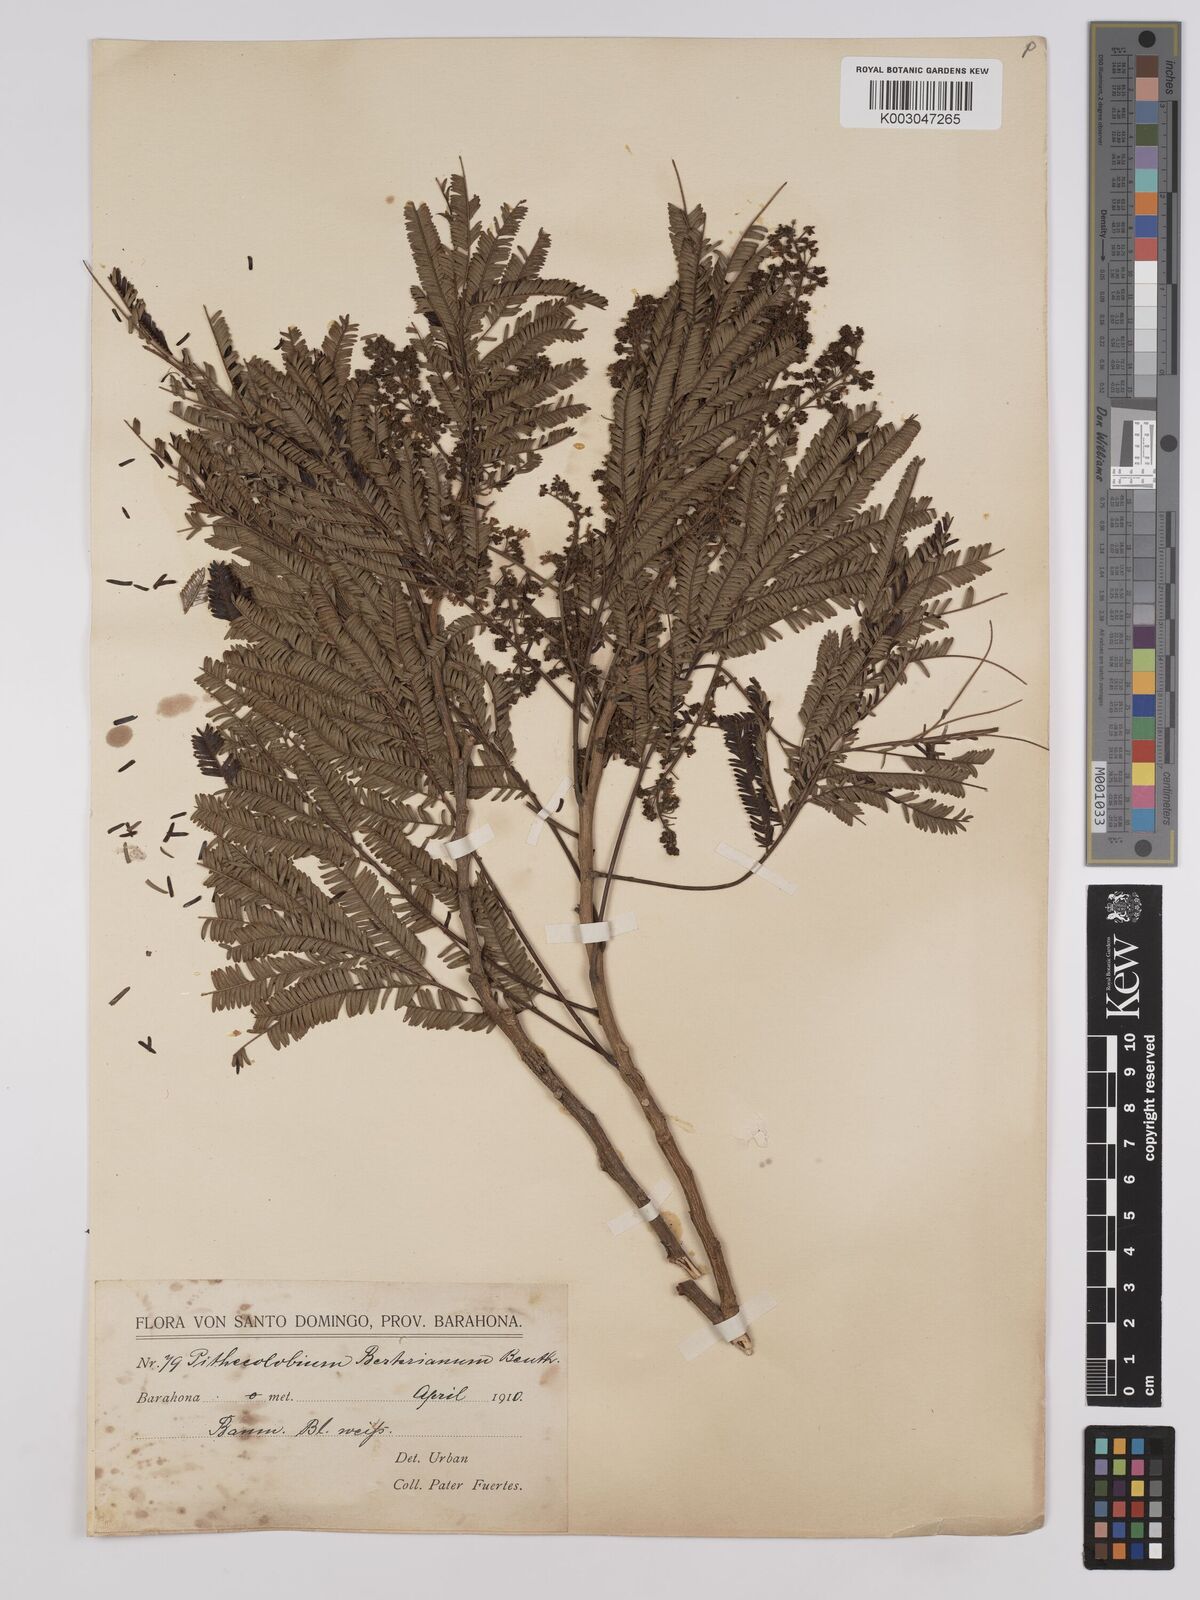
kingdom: Plantae
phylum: Tracheophyta
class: Magnoliopsida
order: Fabales
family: Fabaceae
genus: Albizia
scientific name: Albizia
